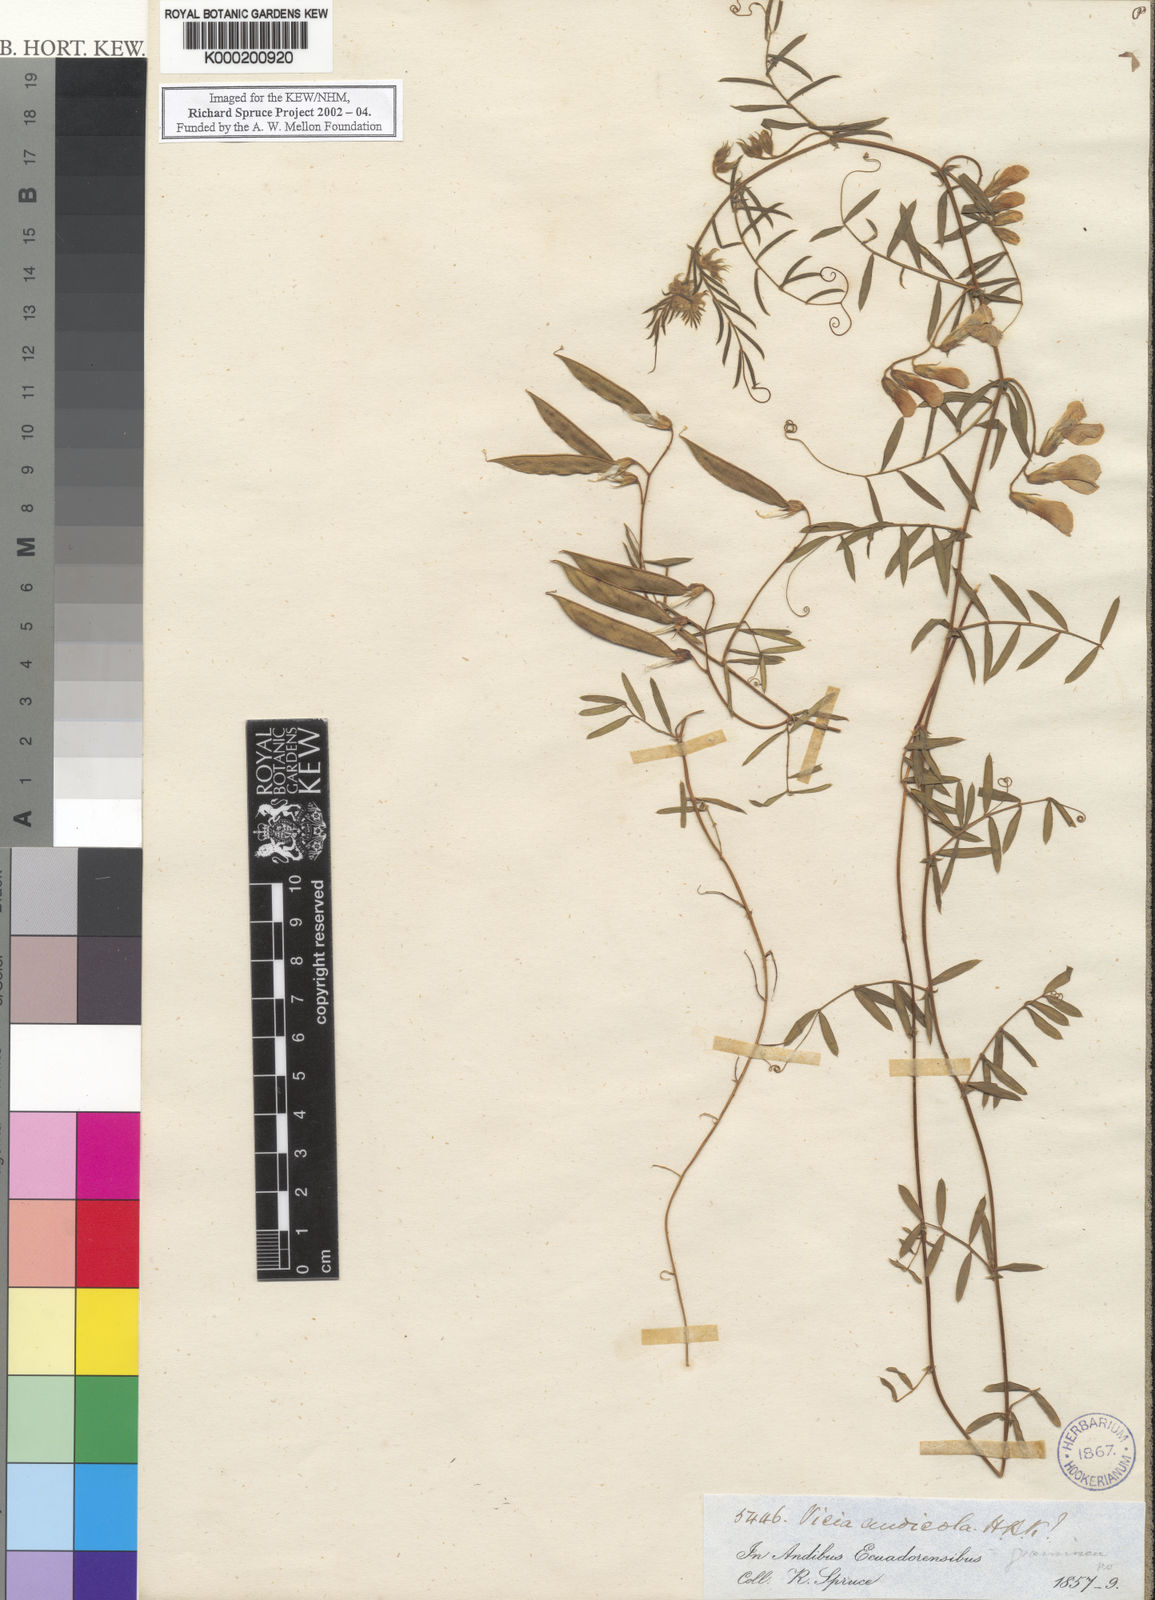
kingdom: Plantae
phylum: Tracheophyta
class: Magnoliopsida
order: Fabales
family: Fabaceae
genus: Vicia
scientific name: Vicia andicola
